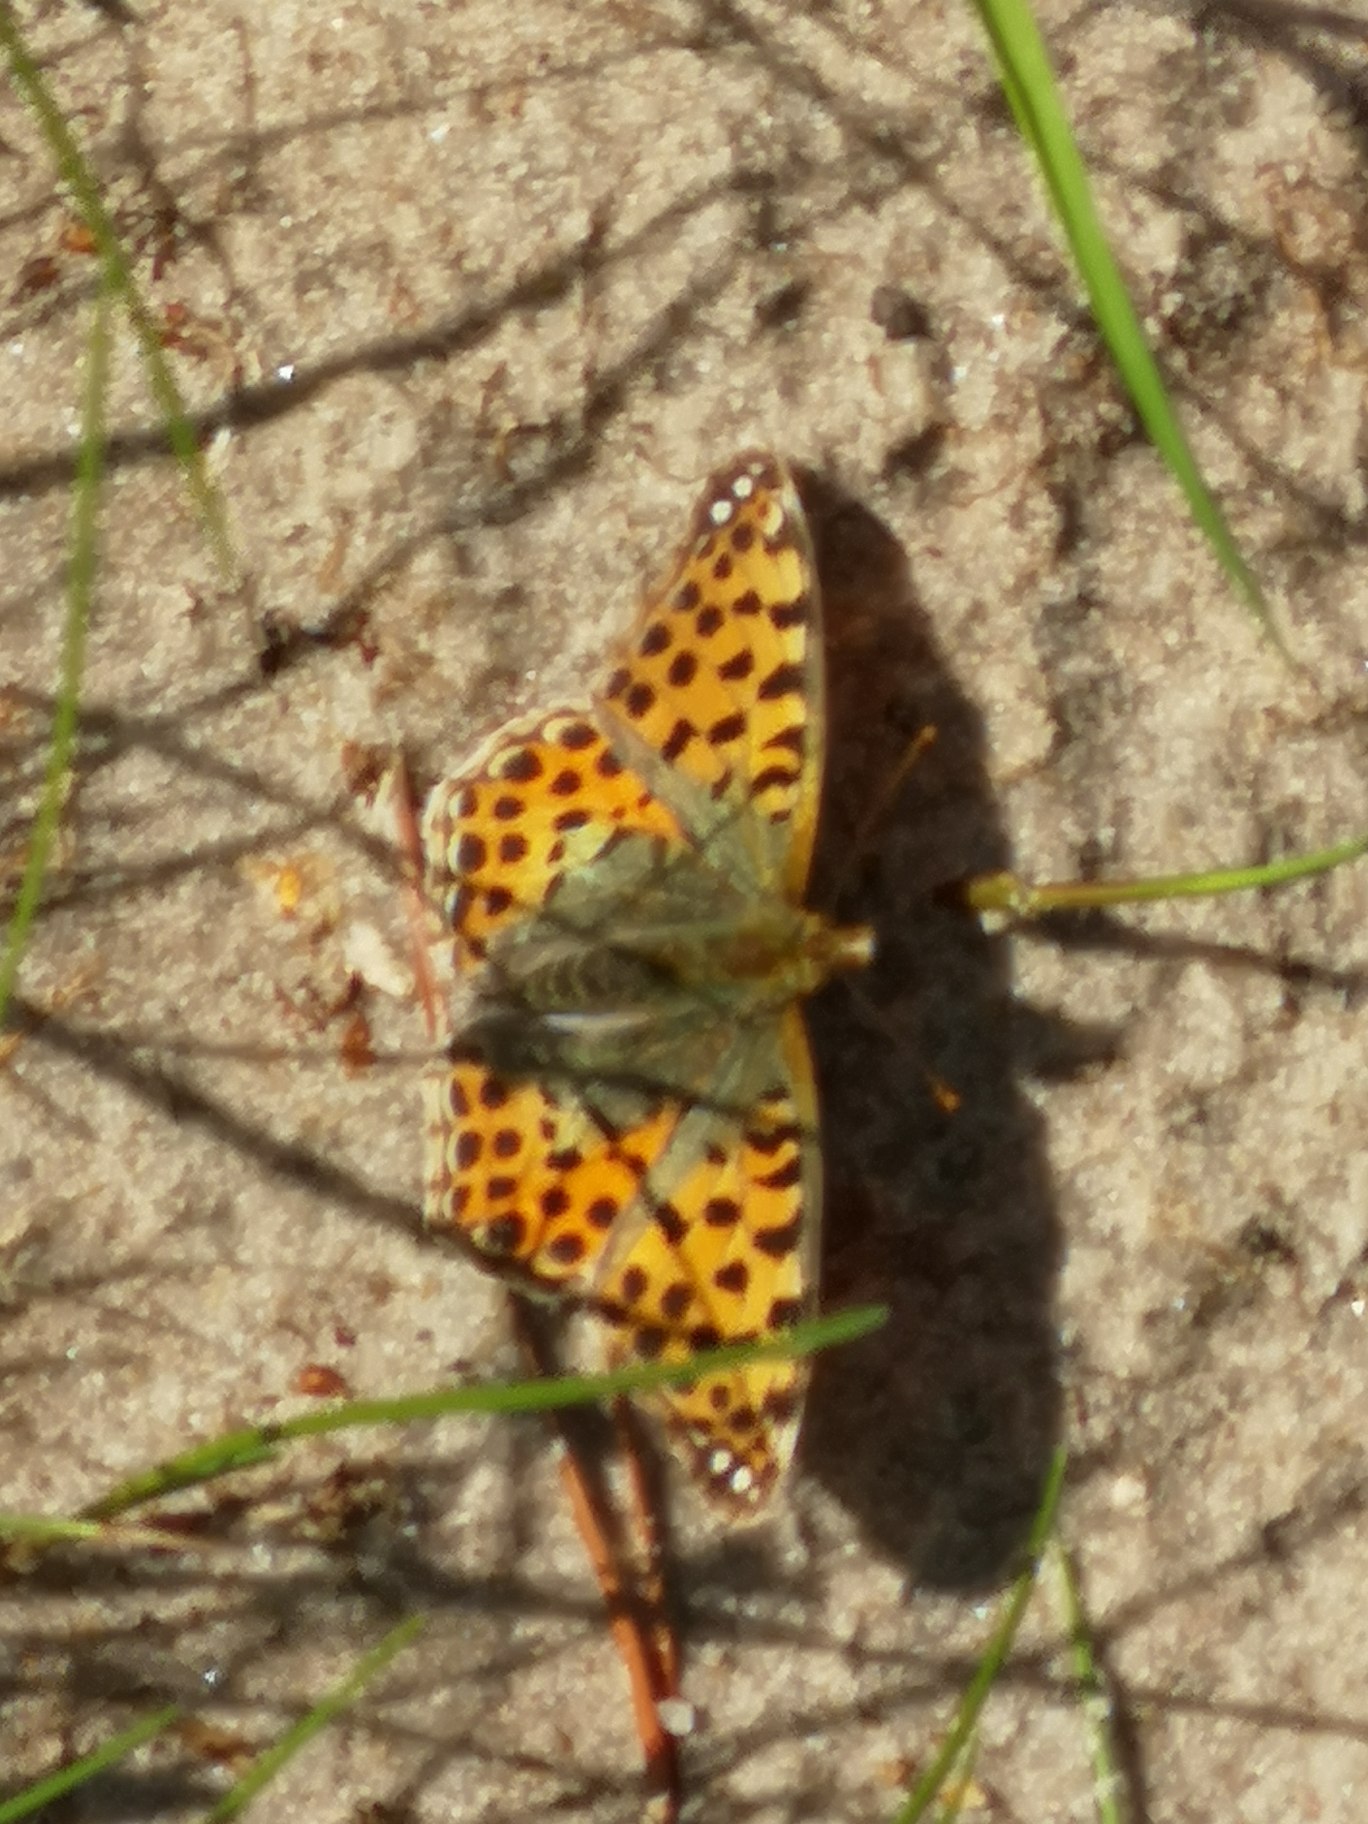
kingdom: Animalia
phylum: Arthropoda
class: Insecta
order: Lepidoptera
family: Nymphalidae
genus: Issoria
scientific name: Issoria lathonia
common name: Storplettet perlemorsommerfugl
